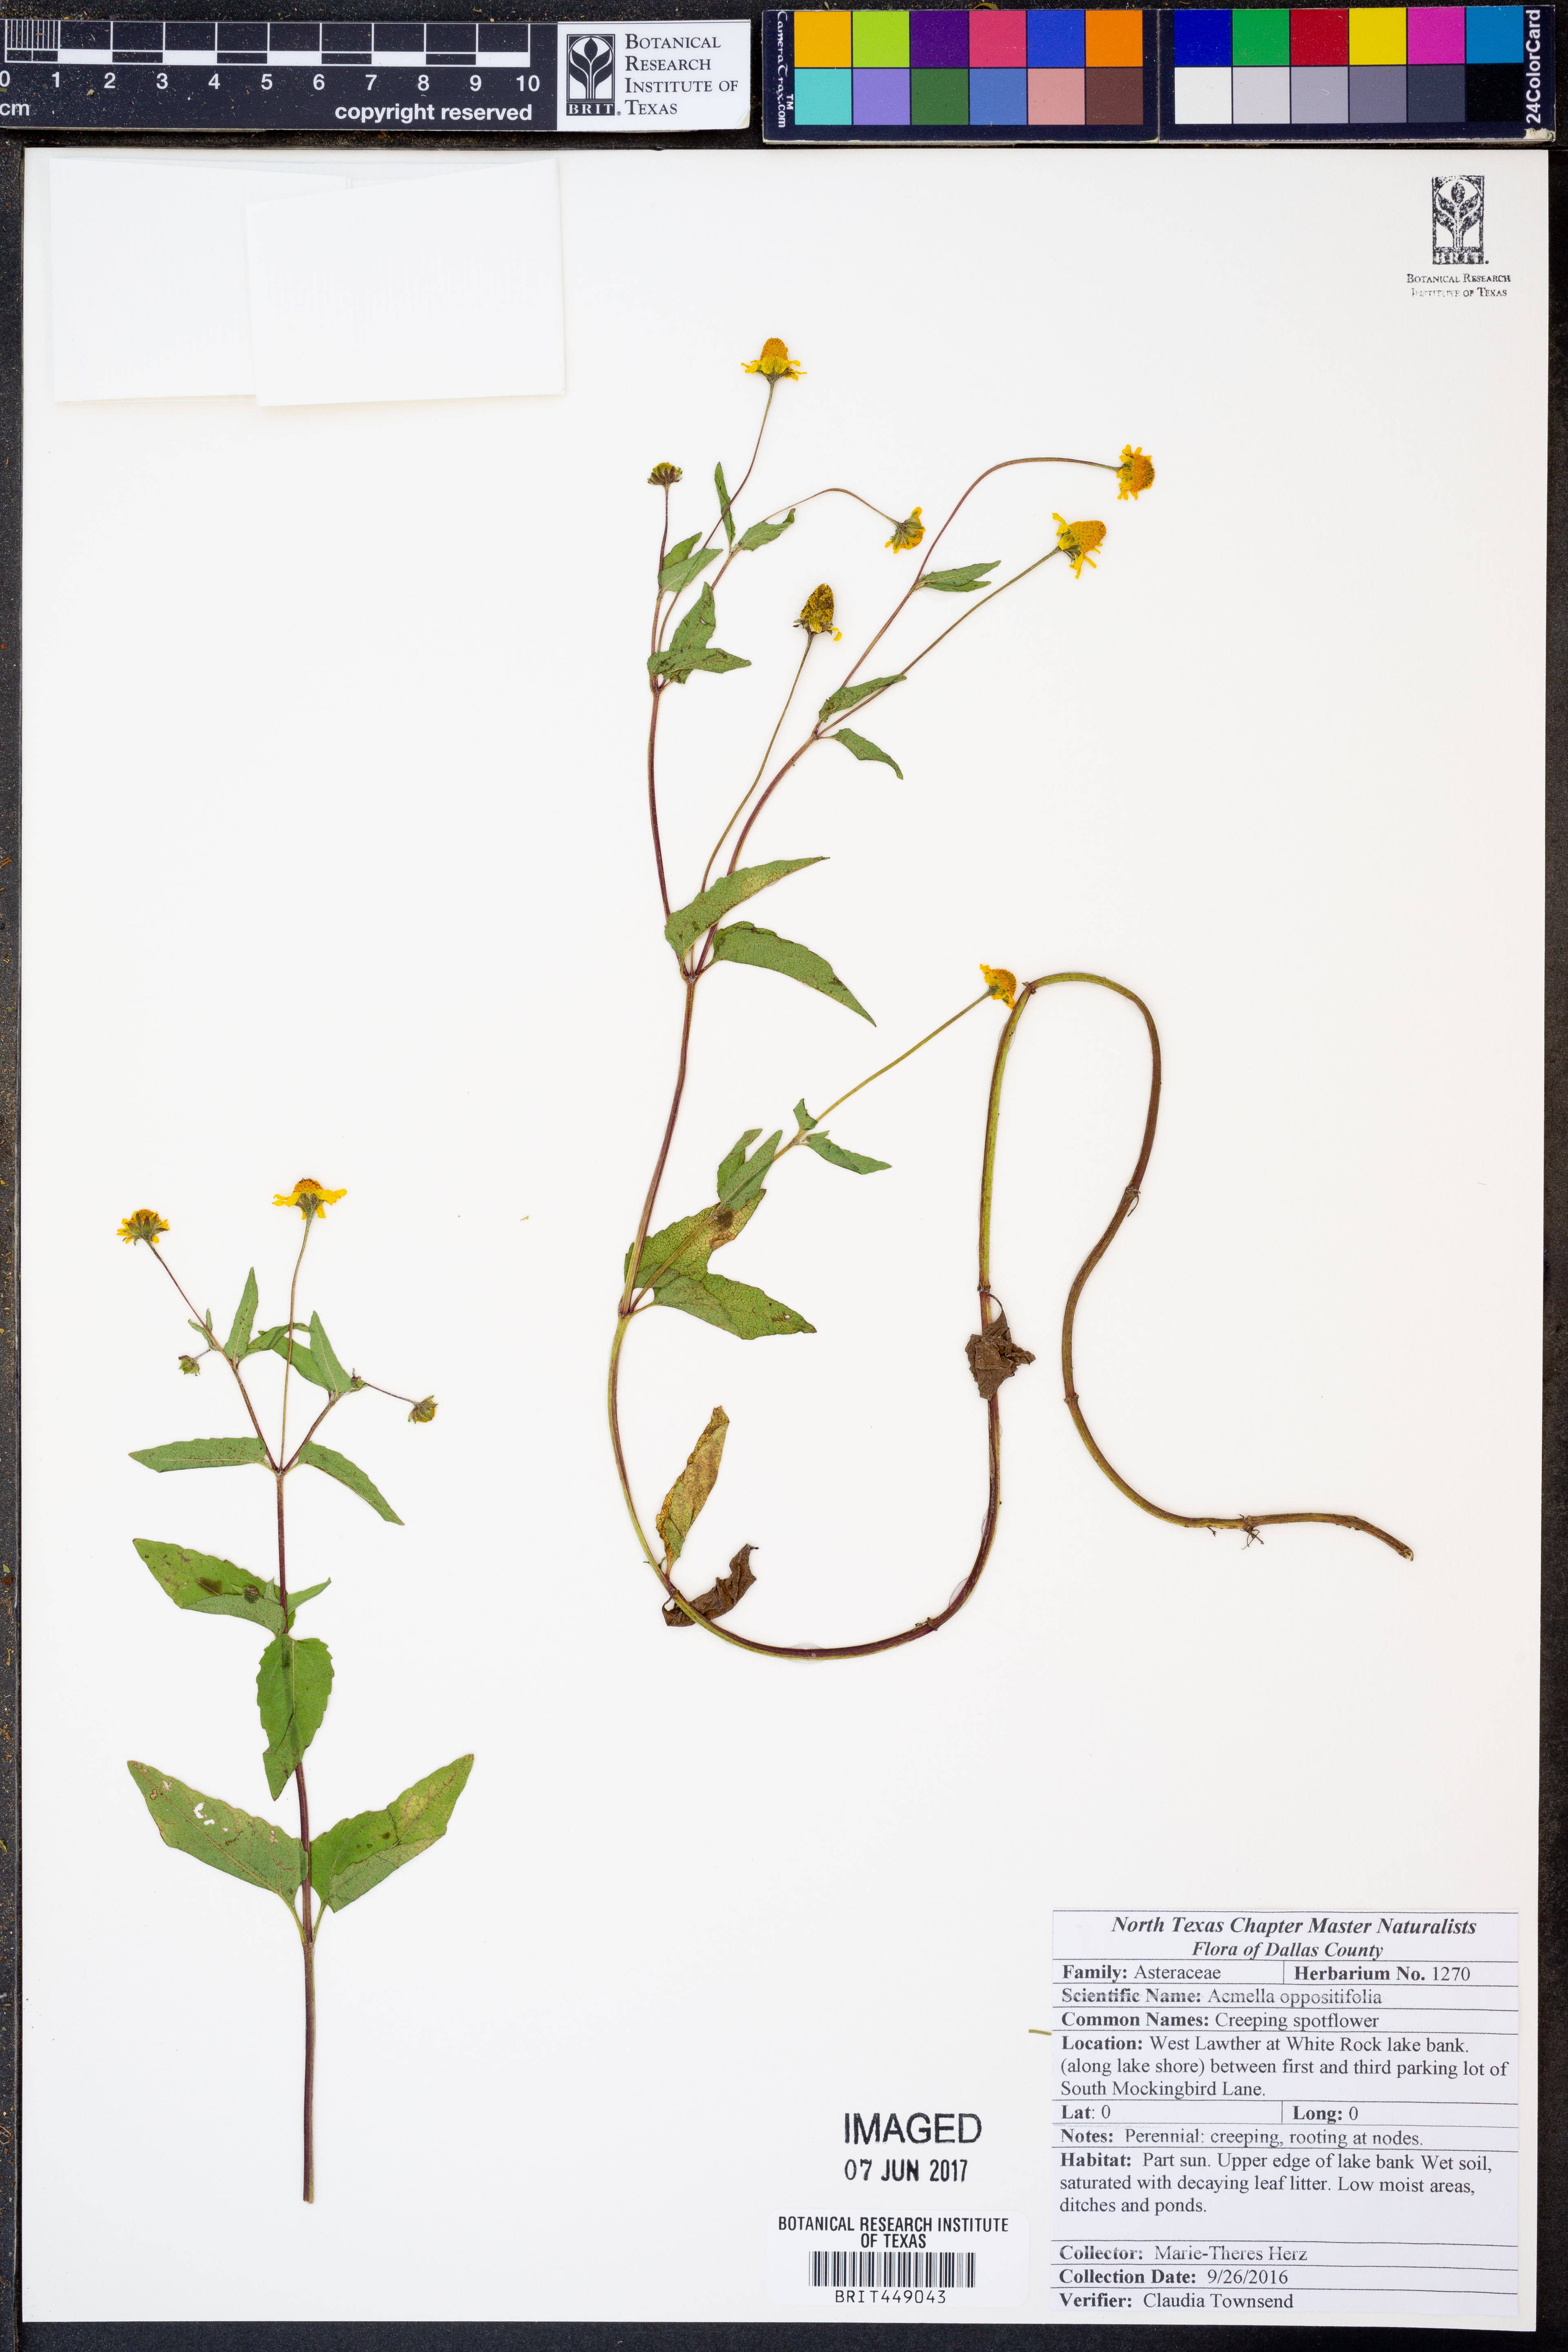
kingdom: Plantae
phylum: Tracheophyta
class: Magnoliopsida
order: Asterales
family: Asteraceae
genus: Heliopsis
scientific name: Heliopsis buphthalmoides
